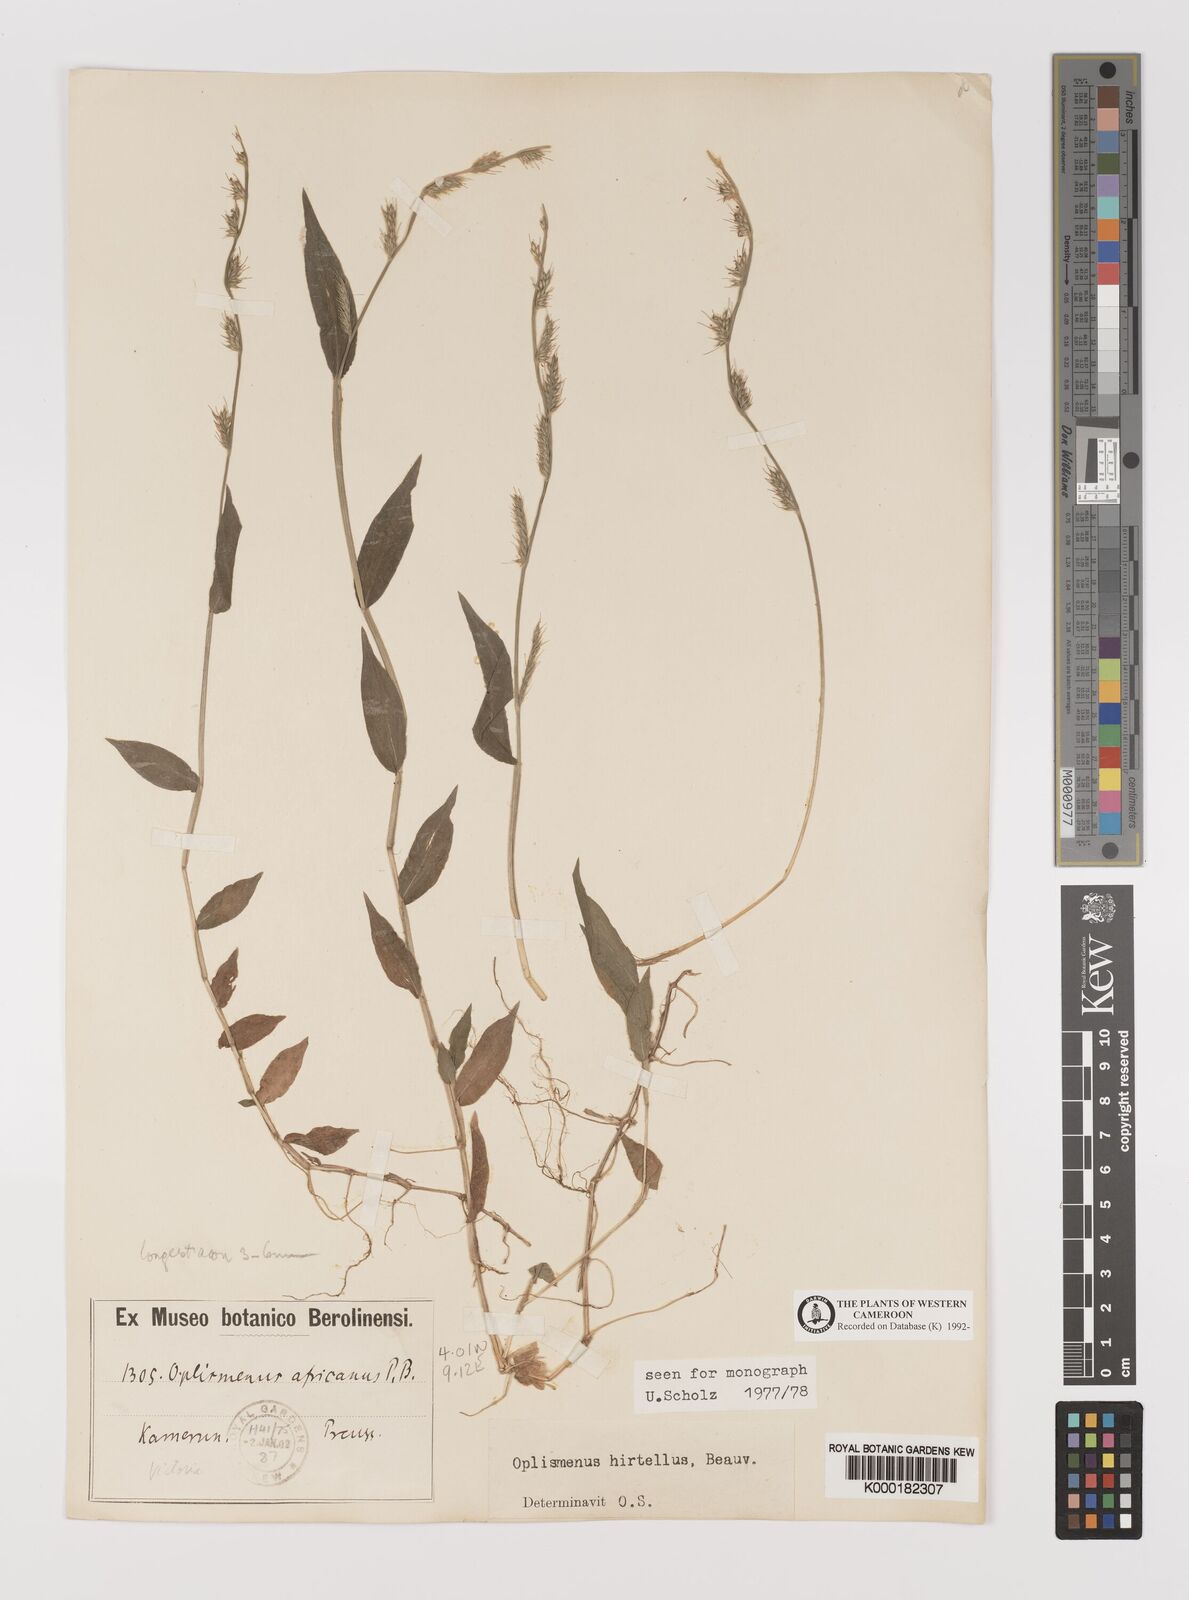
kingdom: Plantae
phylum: Tracheophyta
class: Liliopsida
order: Poales
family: Poaceae
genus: Oplismenus
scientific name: Oplismenus hirtellus
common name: Basketgrass
